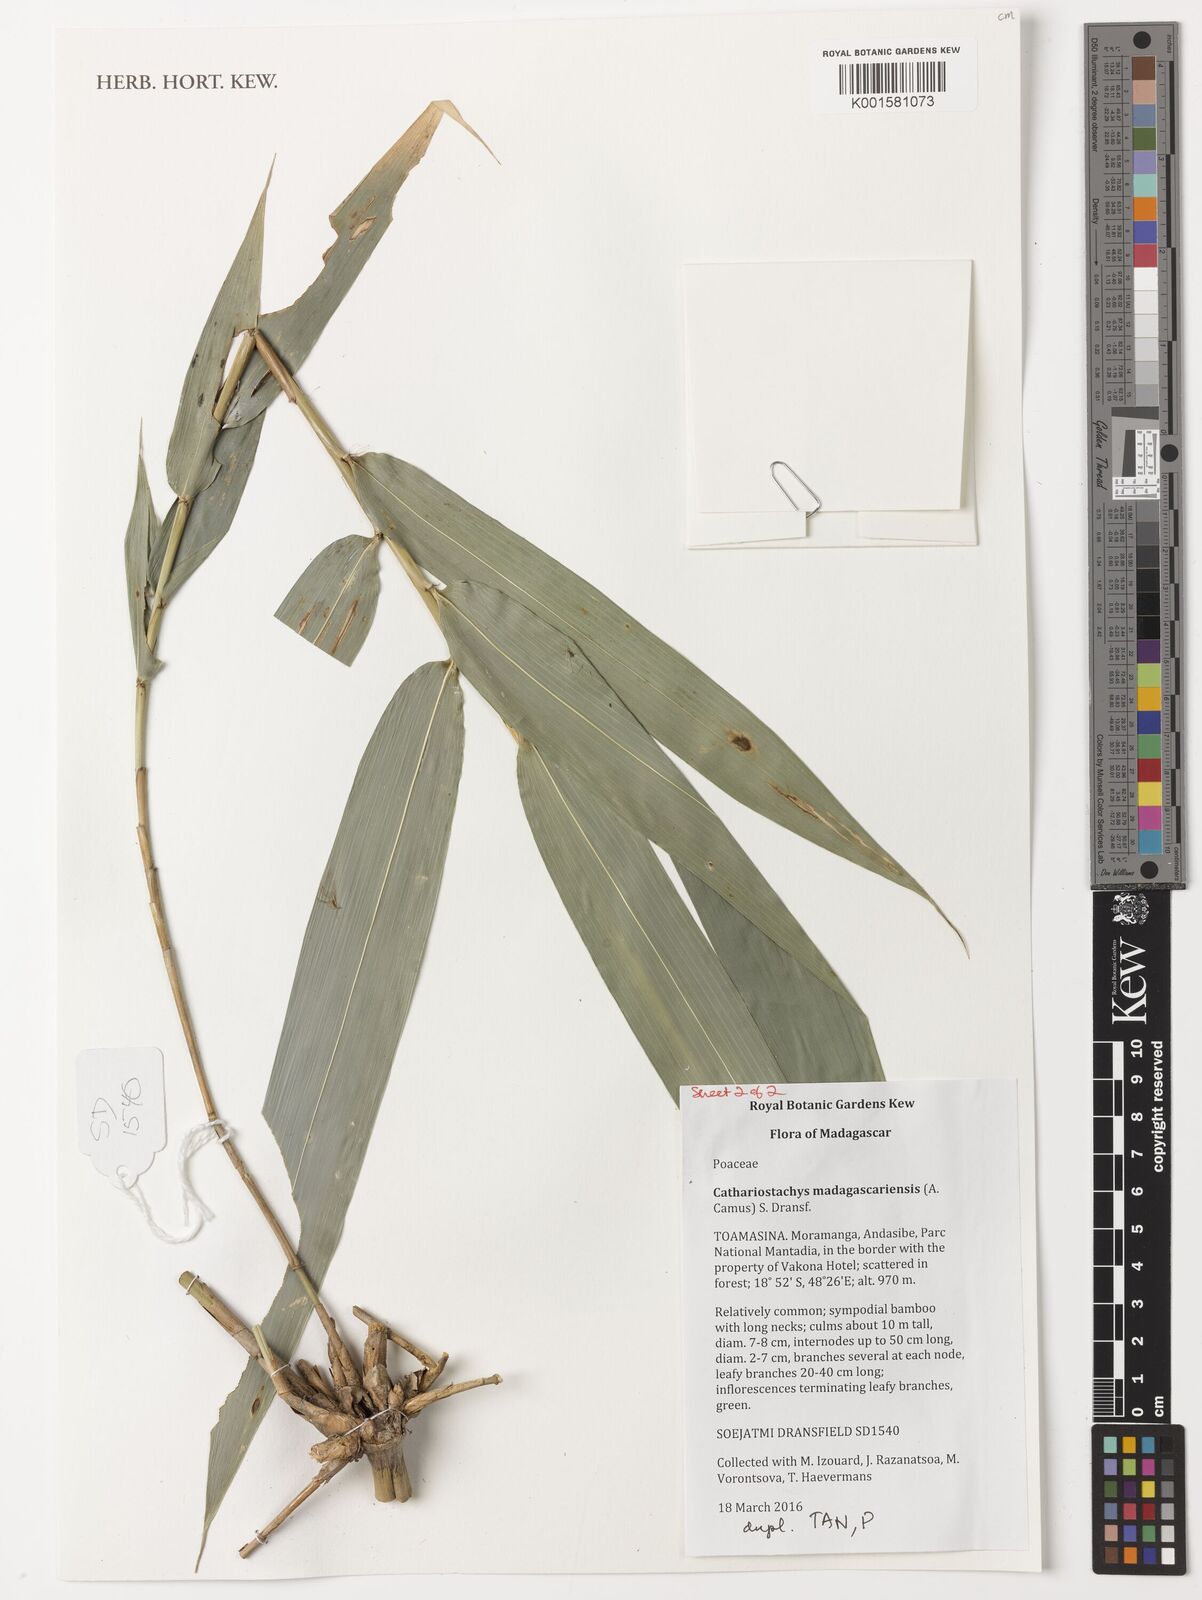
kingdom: Plantae
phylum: Tracheophyta
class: Liliopsida
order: Poales
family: Poaceae
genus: Cathariostachys
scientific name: Cathariostachys madagascariensis
